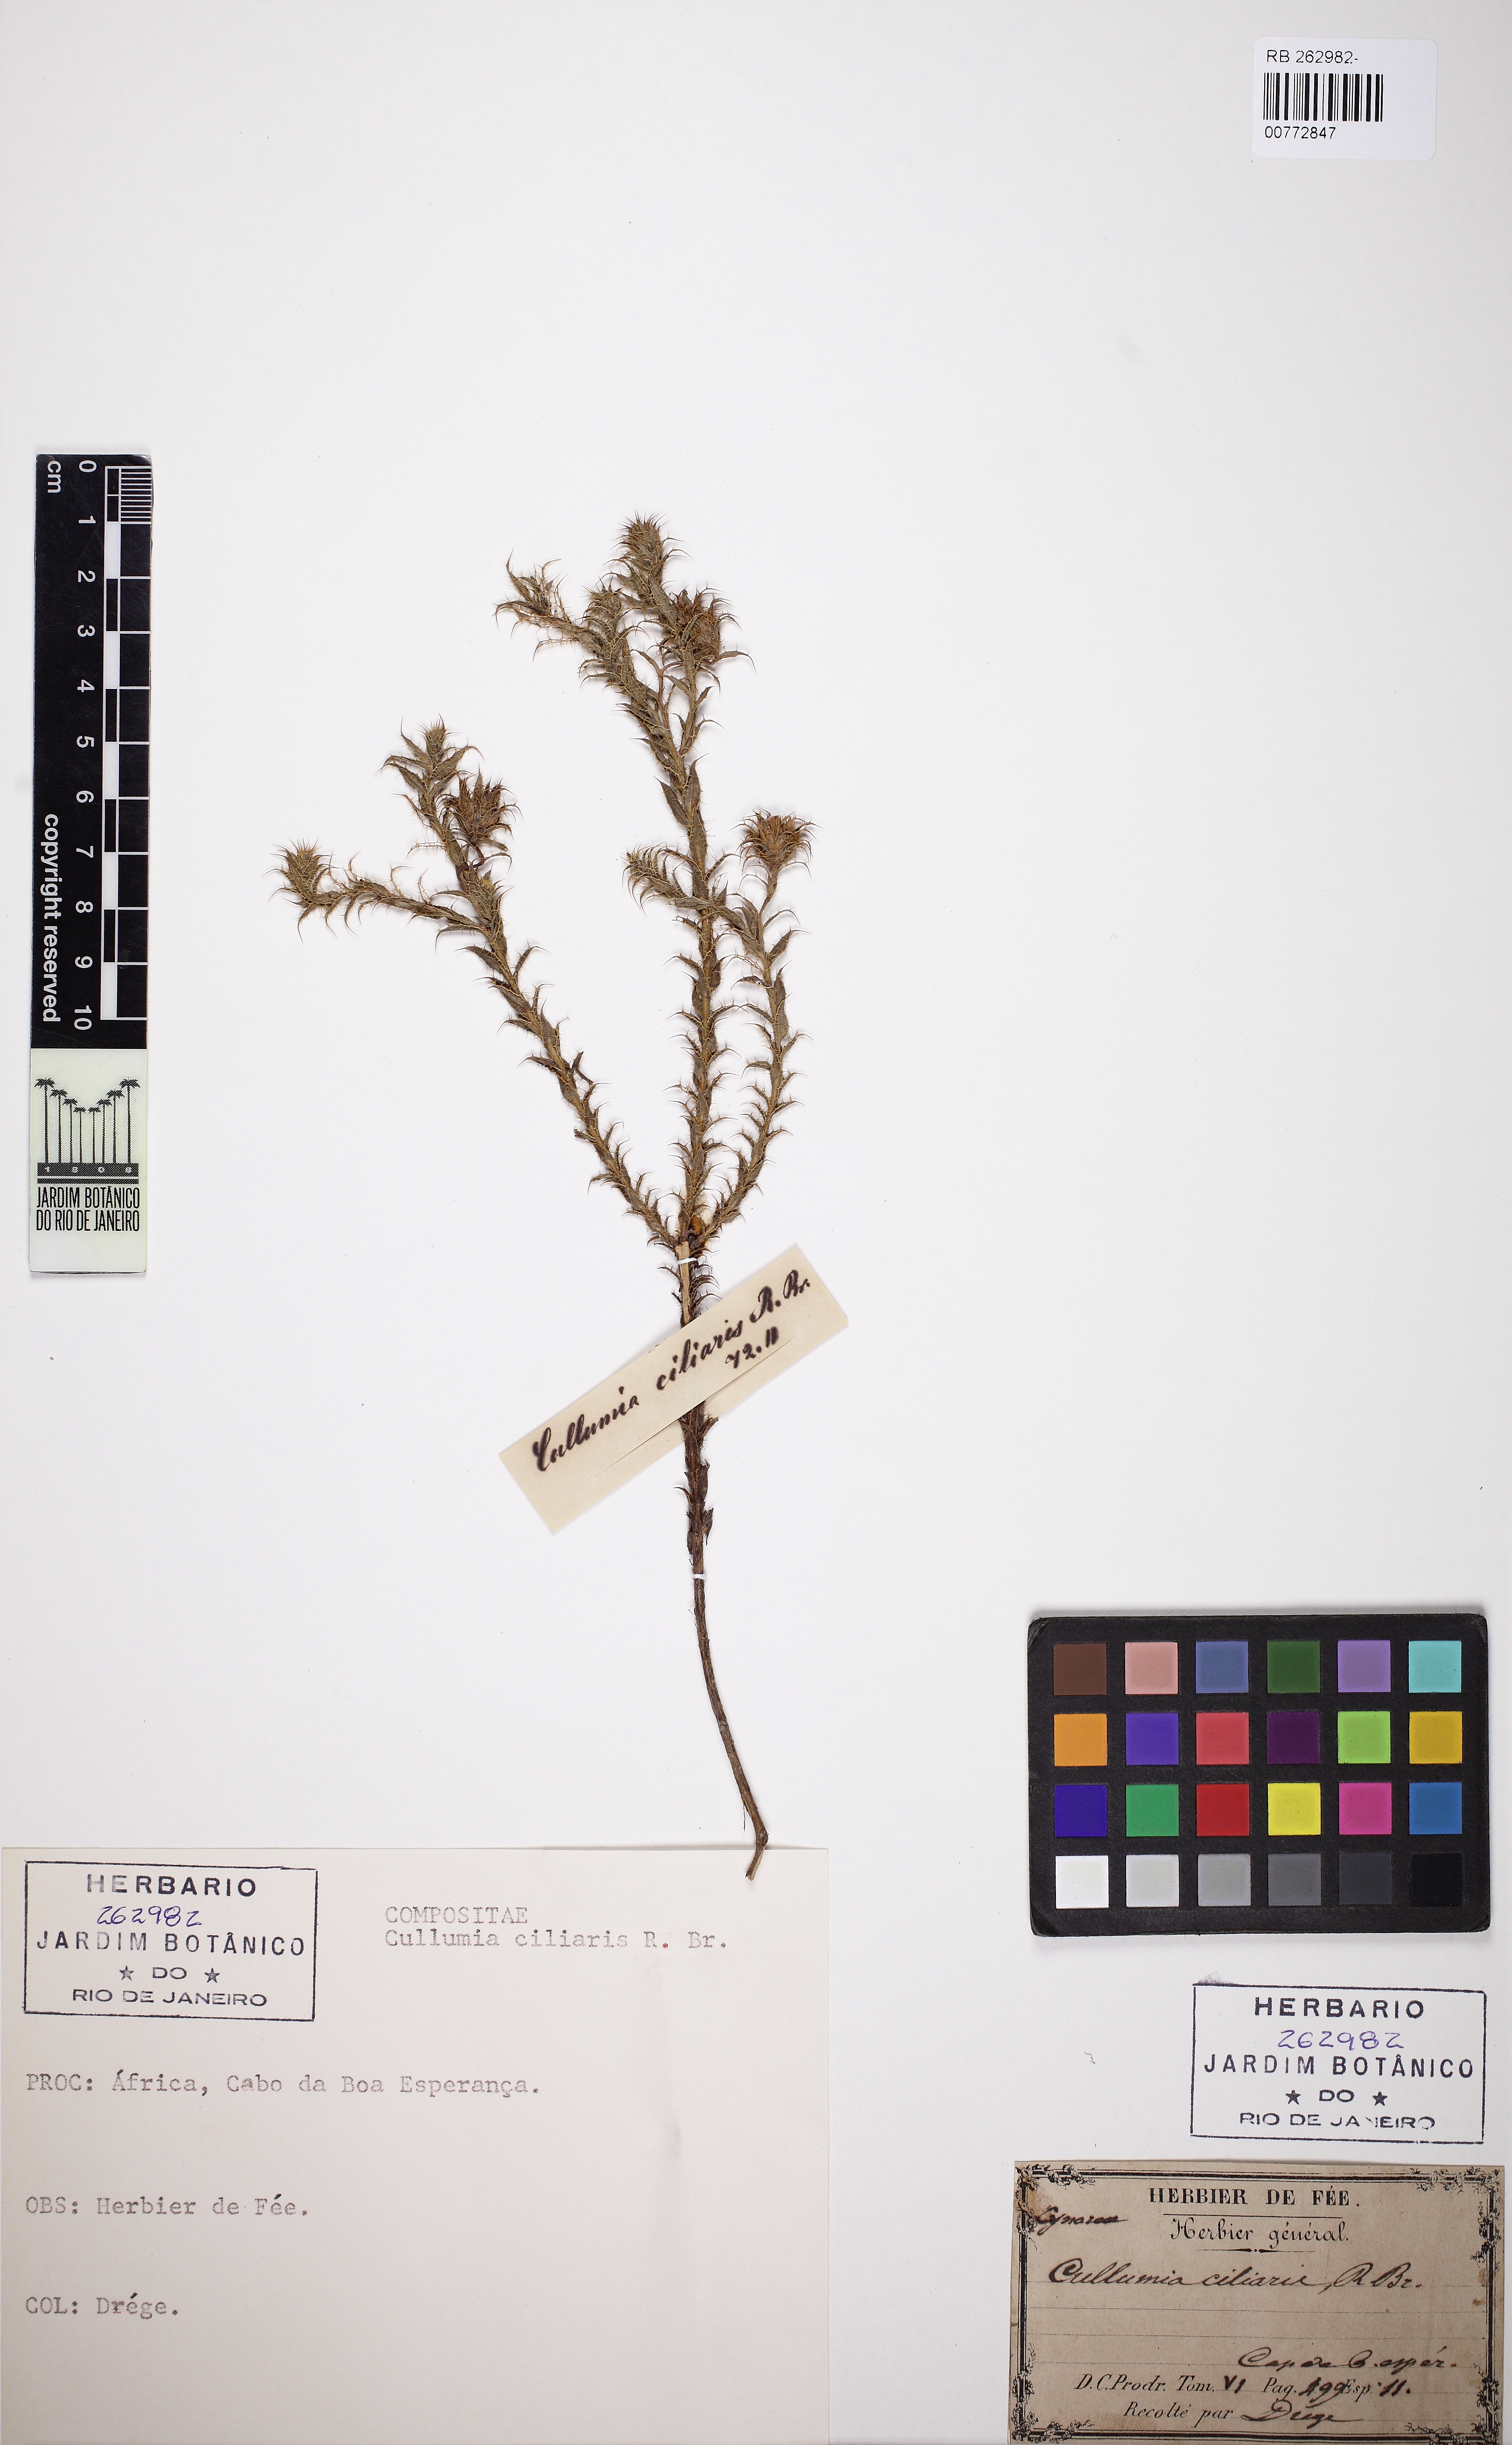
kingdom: Plantae
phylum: Tracheophyta
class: Magnoliopsida
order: Asterales
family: Asteraceae
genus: Cullumia
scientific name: Cullumia ciliaris
